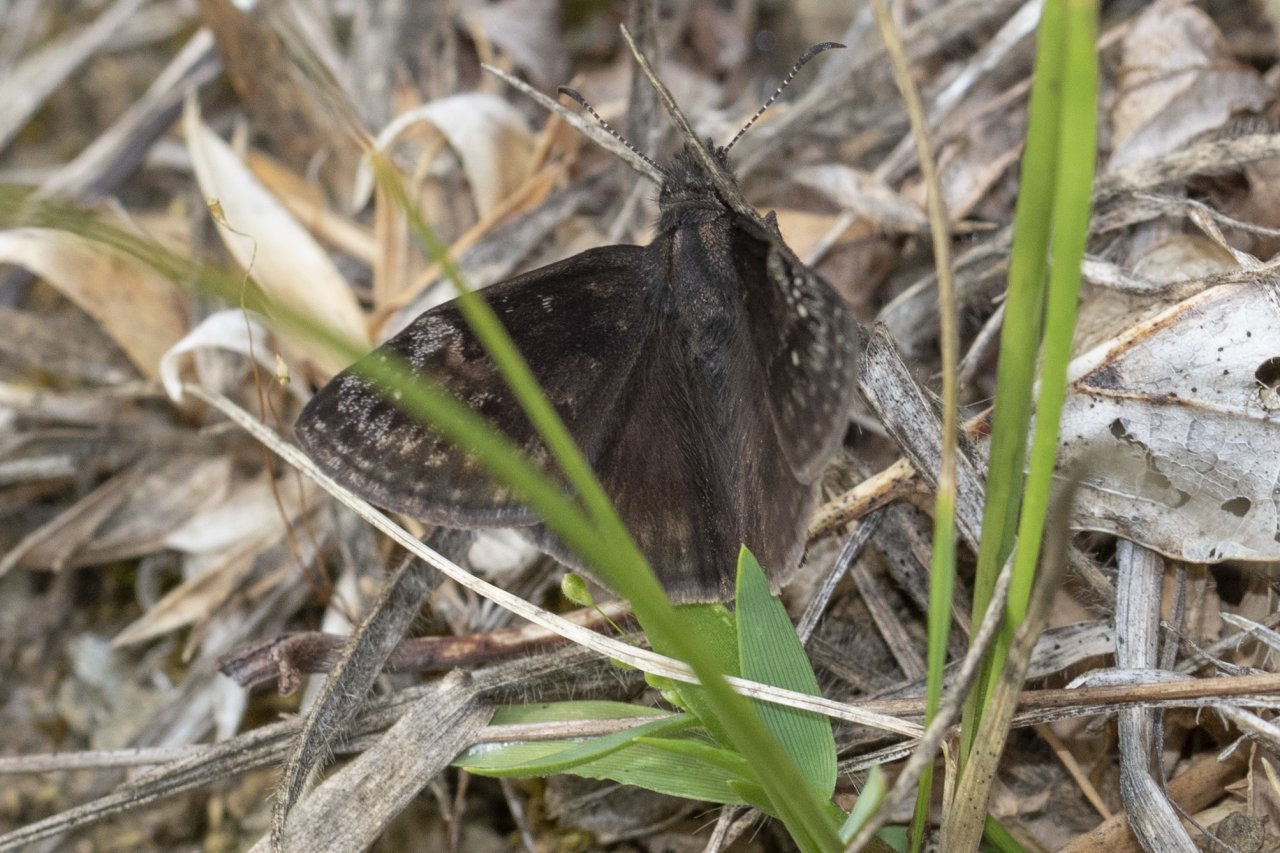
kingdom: Animalia
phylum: Arthropoda
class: Insecta
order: Lepidoptera
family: Hesperiidae
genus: Gesta
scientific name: Gesta
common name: Wild Indigo Duskywing
